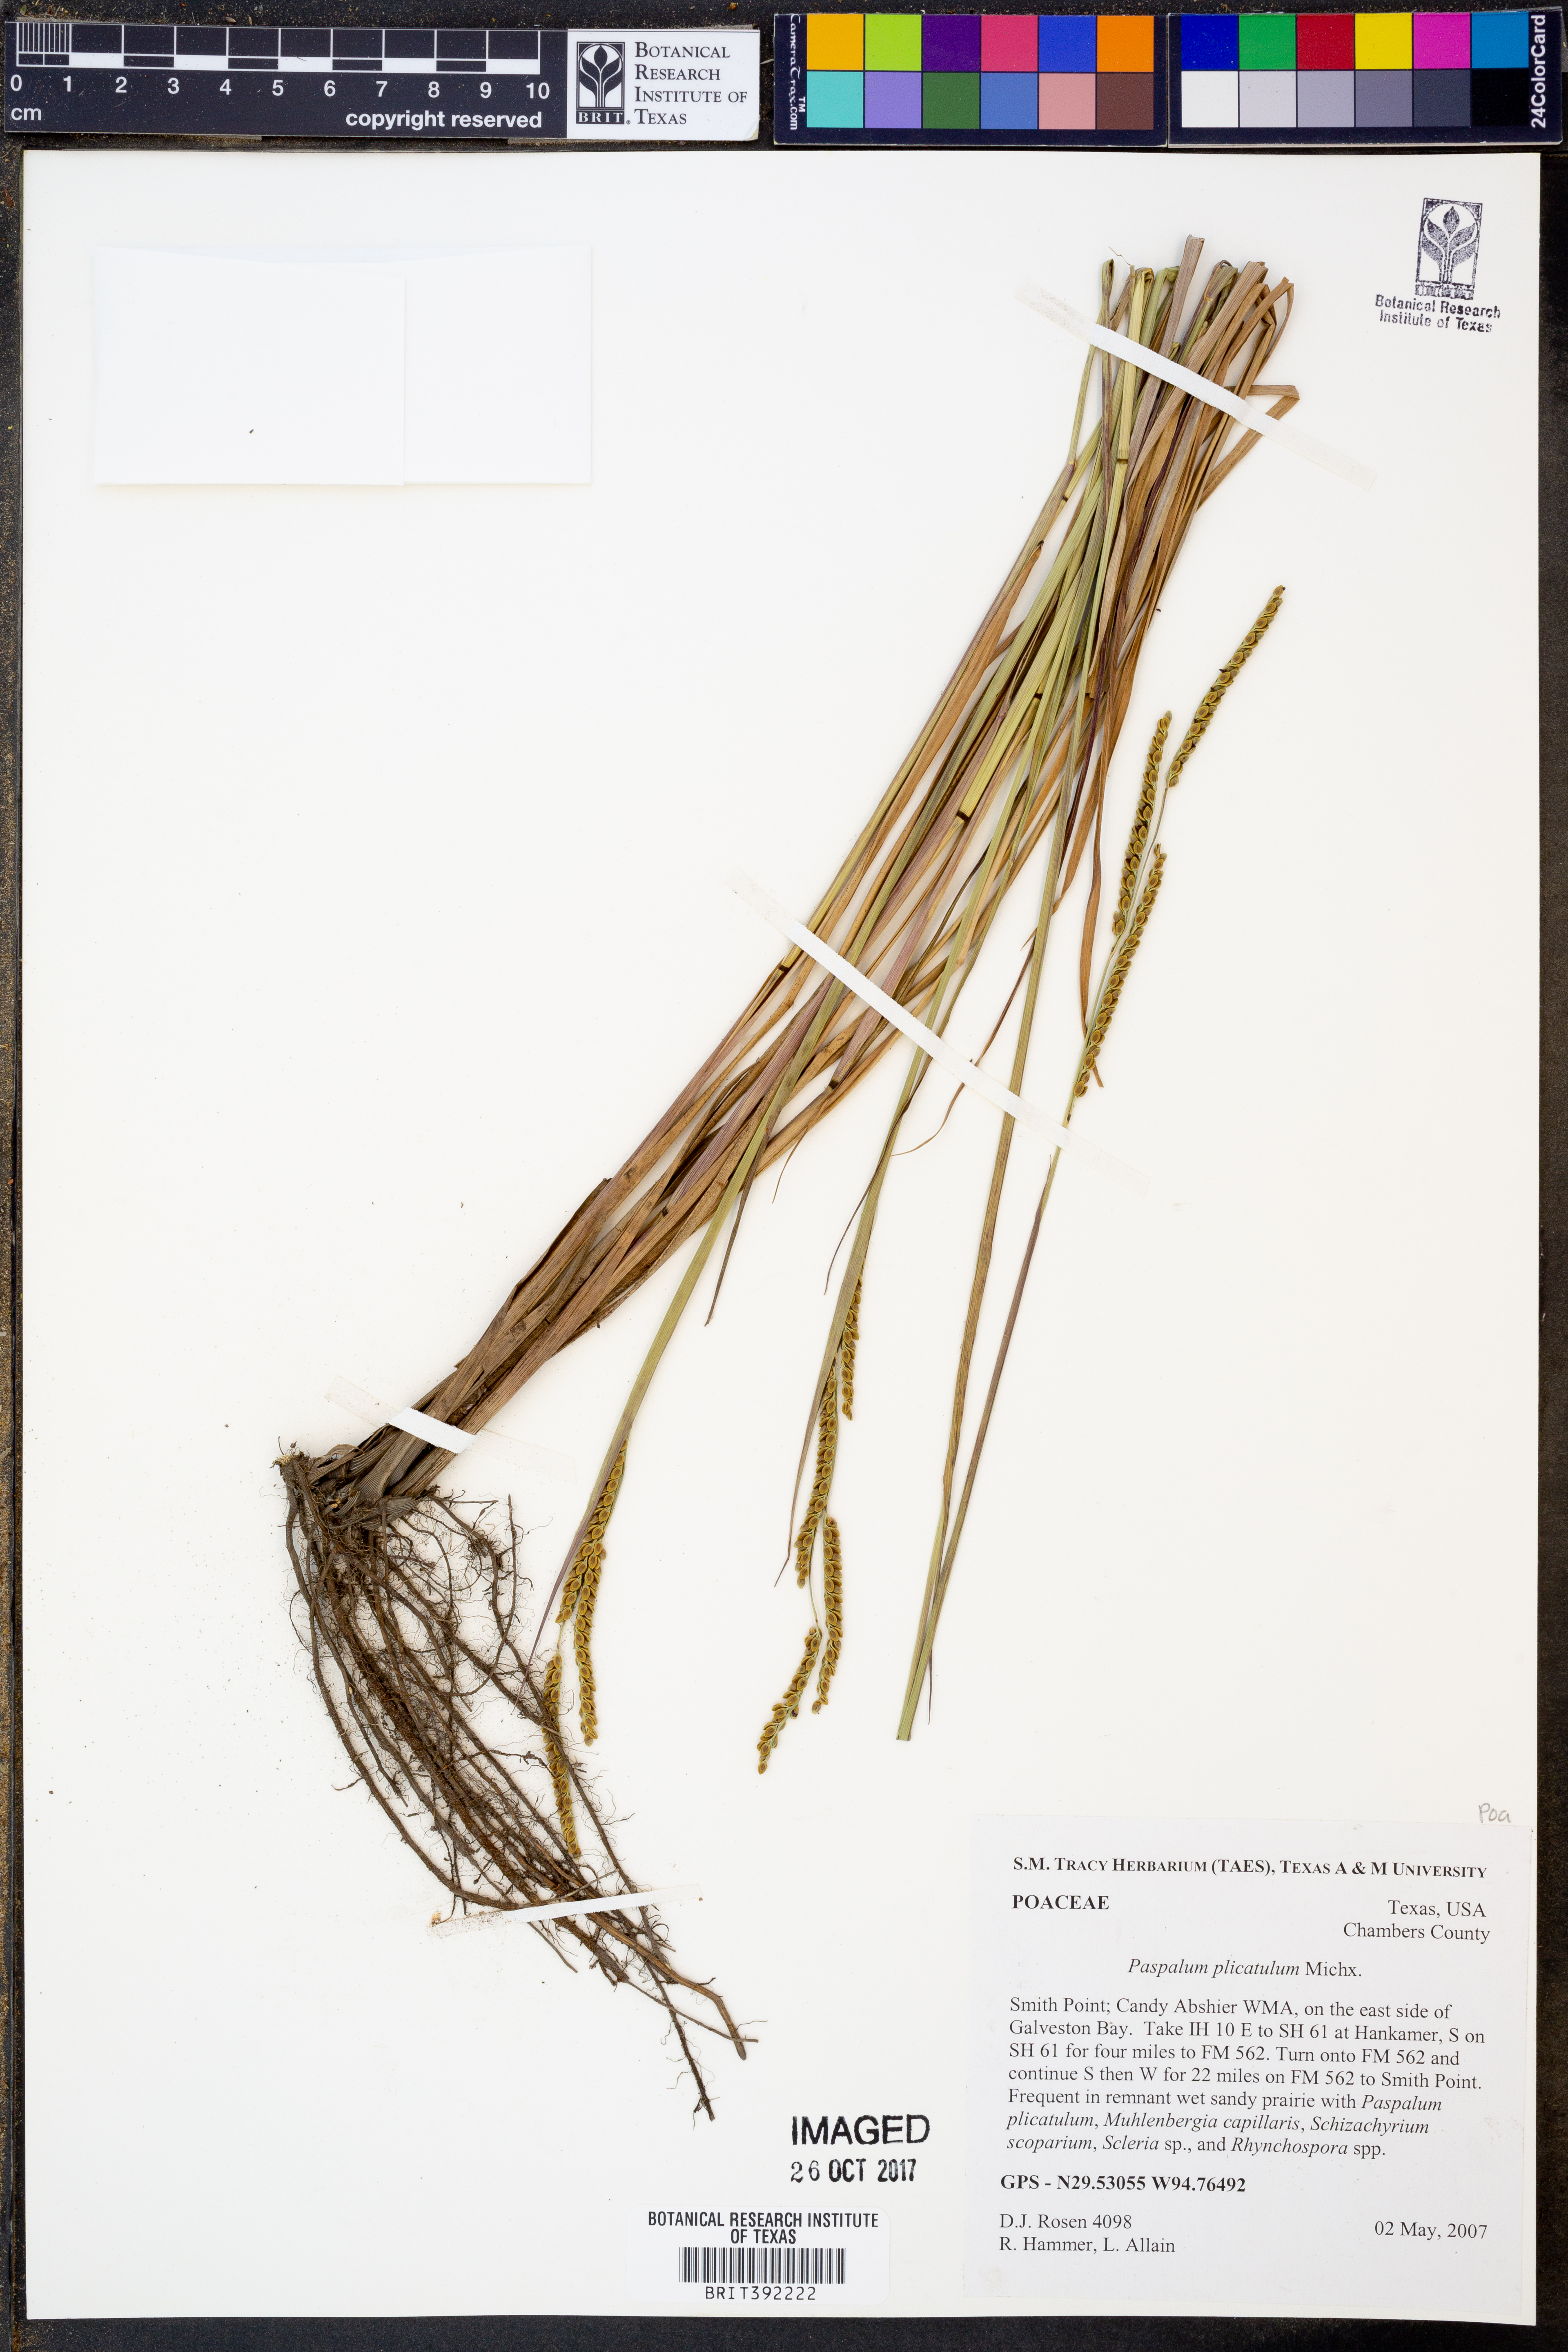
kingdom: Plantae
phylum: Tracheophyta
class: Liliopsida
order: Poales
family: Poaceae
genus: Paspalum
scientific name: Paspalum plicatulum
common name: Top paspalum
